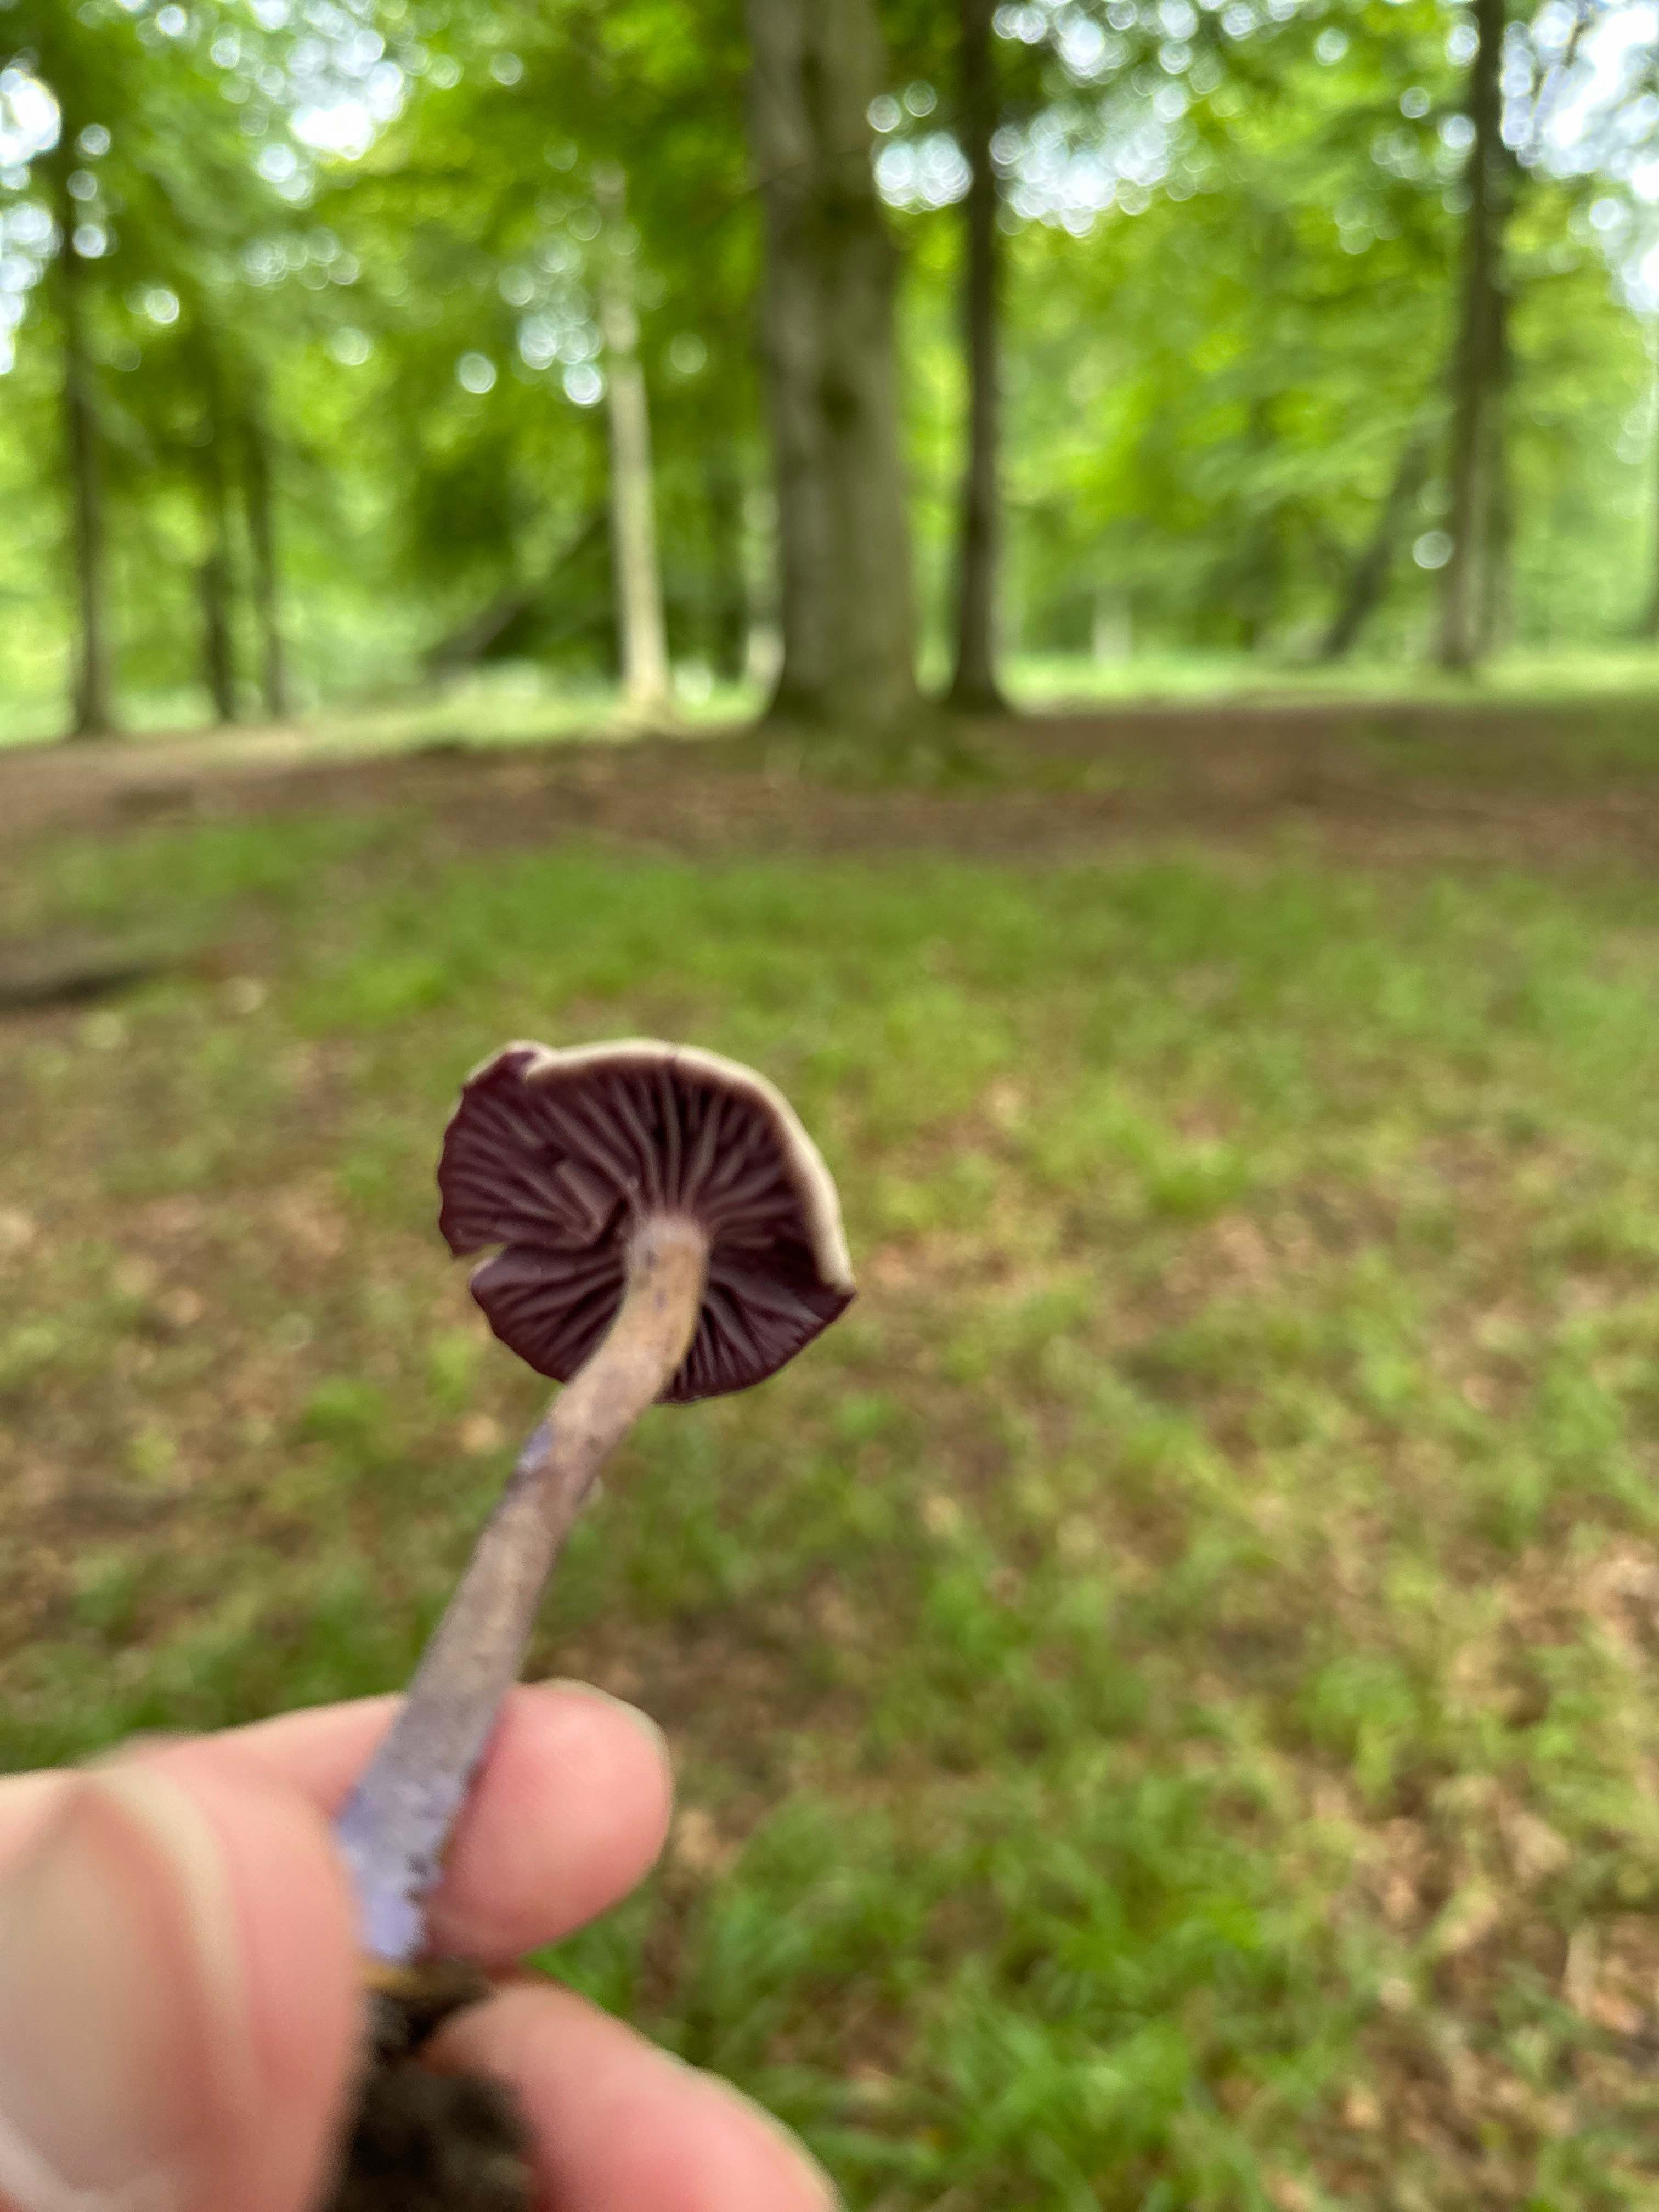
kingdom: Fungi
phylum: Basidiomycota
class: Agaricomycetes
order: Agaricales
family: Hydnangiaceae
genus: Laccaria
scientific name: Laccaria amethystina
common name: violet ametysthat
